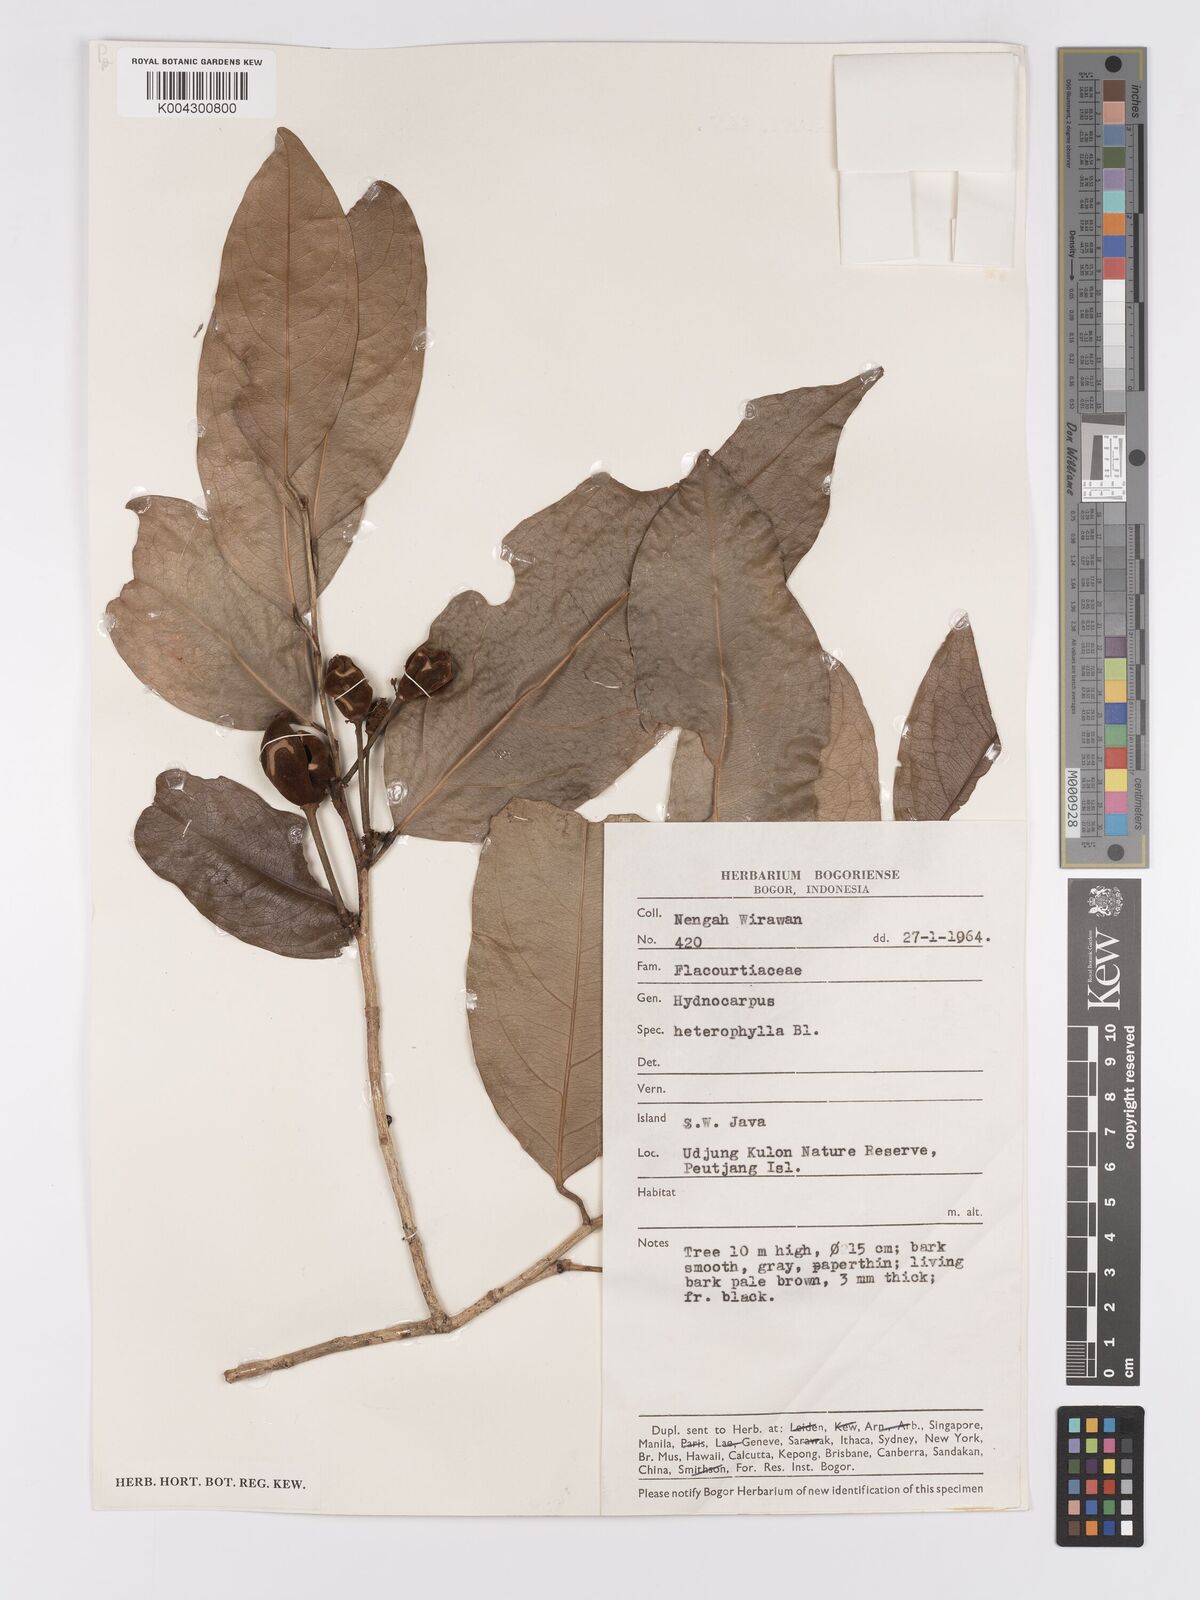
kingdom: Plantae
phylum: Tracheophyta
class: Magnoliopsida
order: Malpighiales
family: Achariaceae
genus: Hydnocarpus
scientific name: Hydnocarpus heterophyllus
